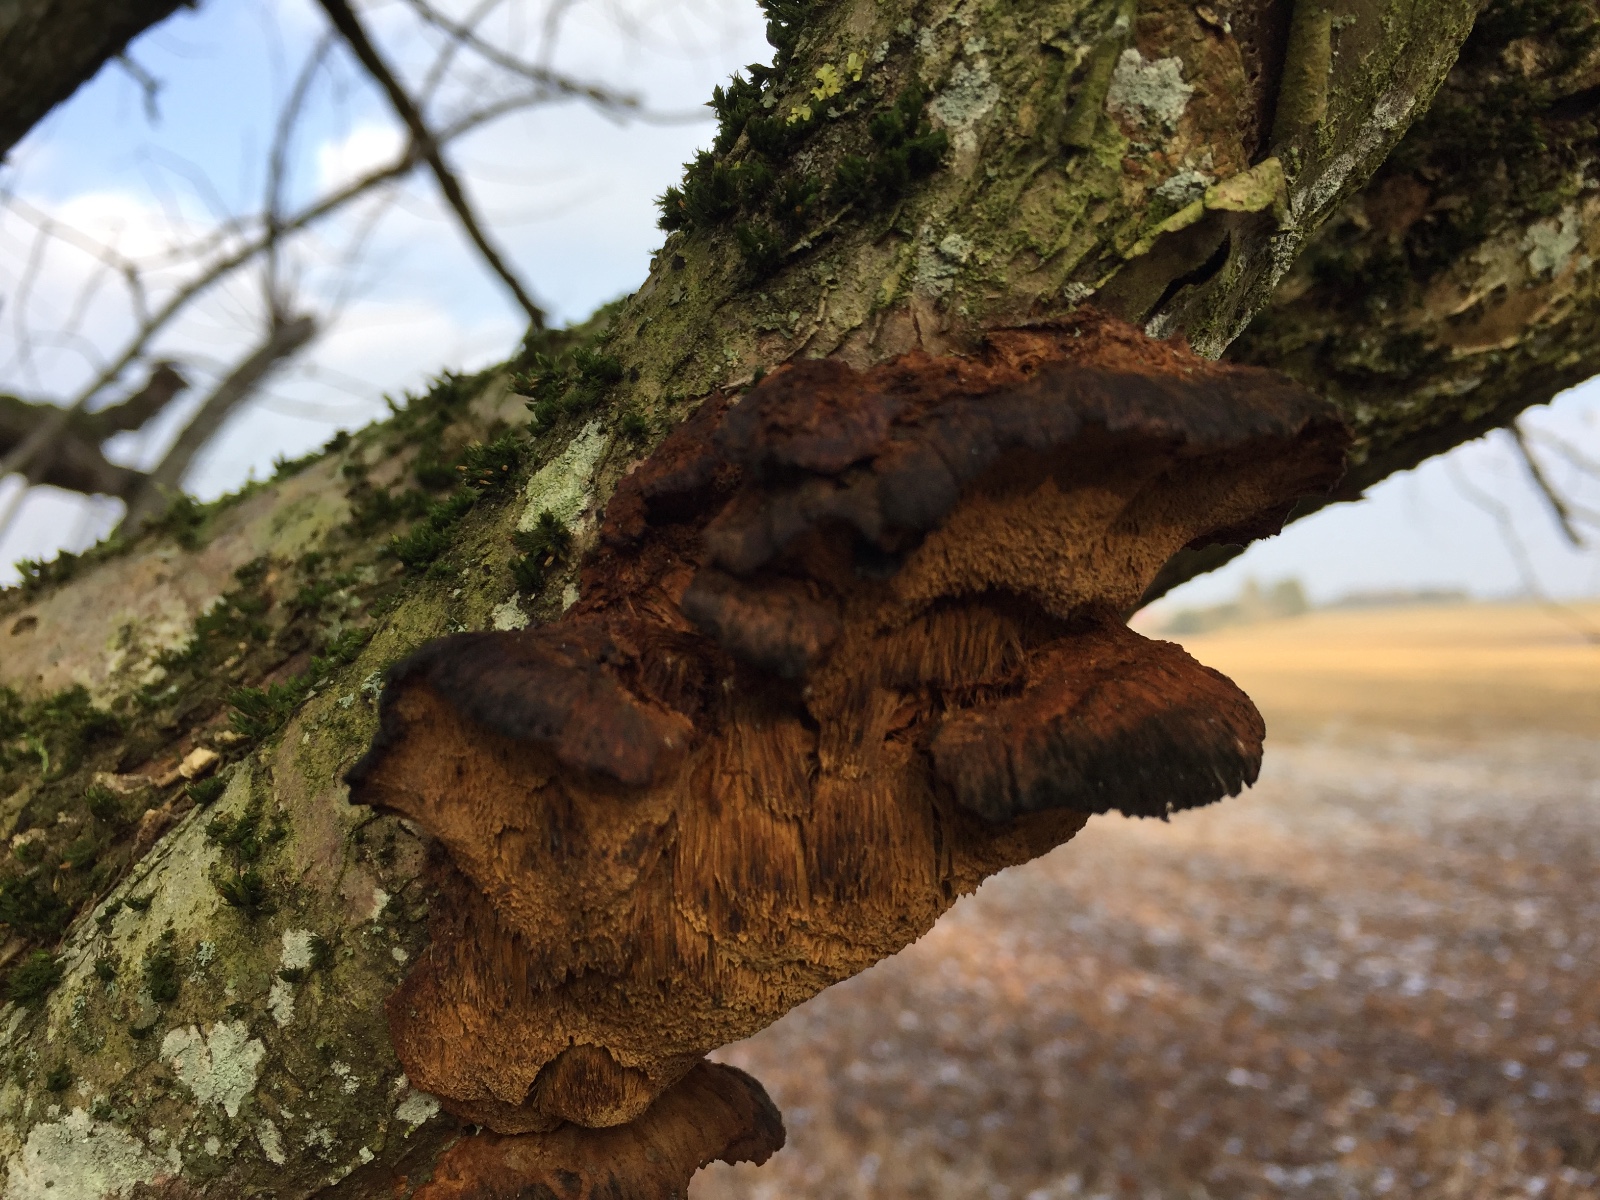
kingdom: Fungi
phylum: Basidiomycota
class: Agaricomycetes
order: Hymenochaetales
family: Hymenochaetaceae
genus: Xanthoporia
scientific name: Xanthoporia radiata
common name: elle-spejlporesvamp
